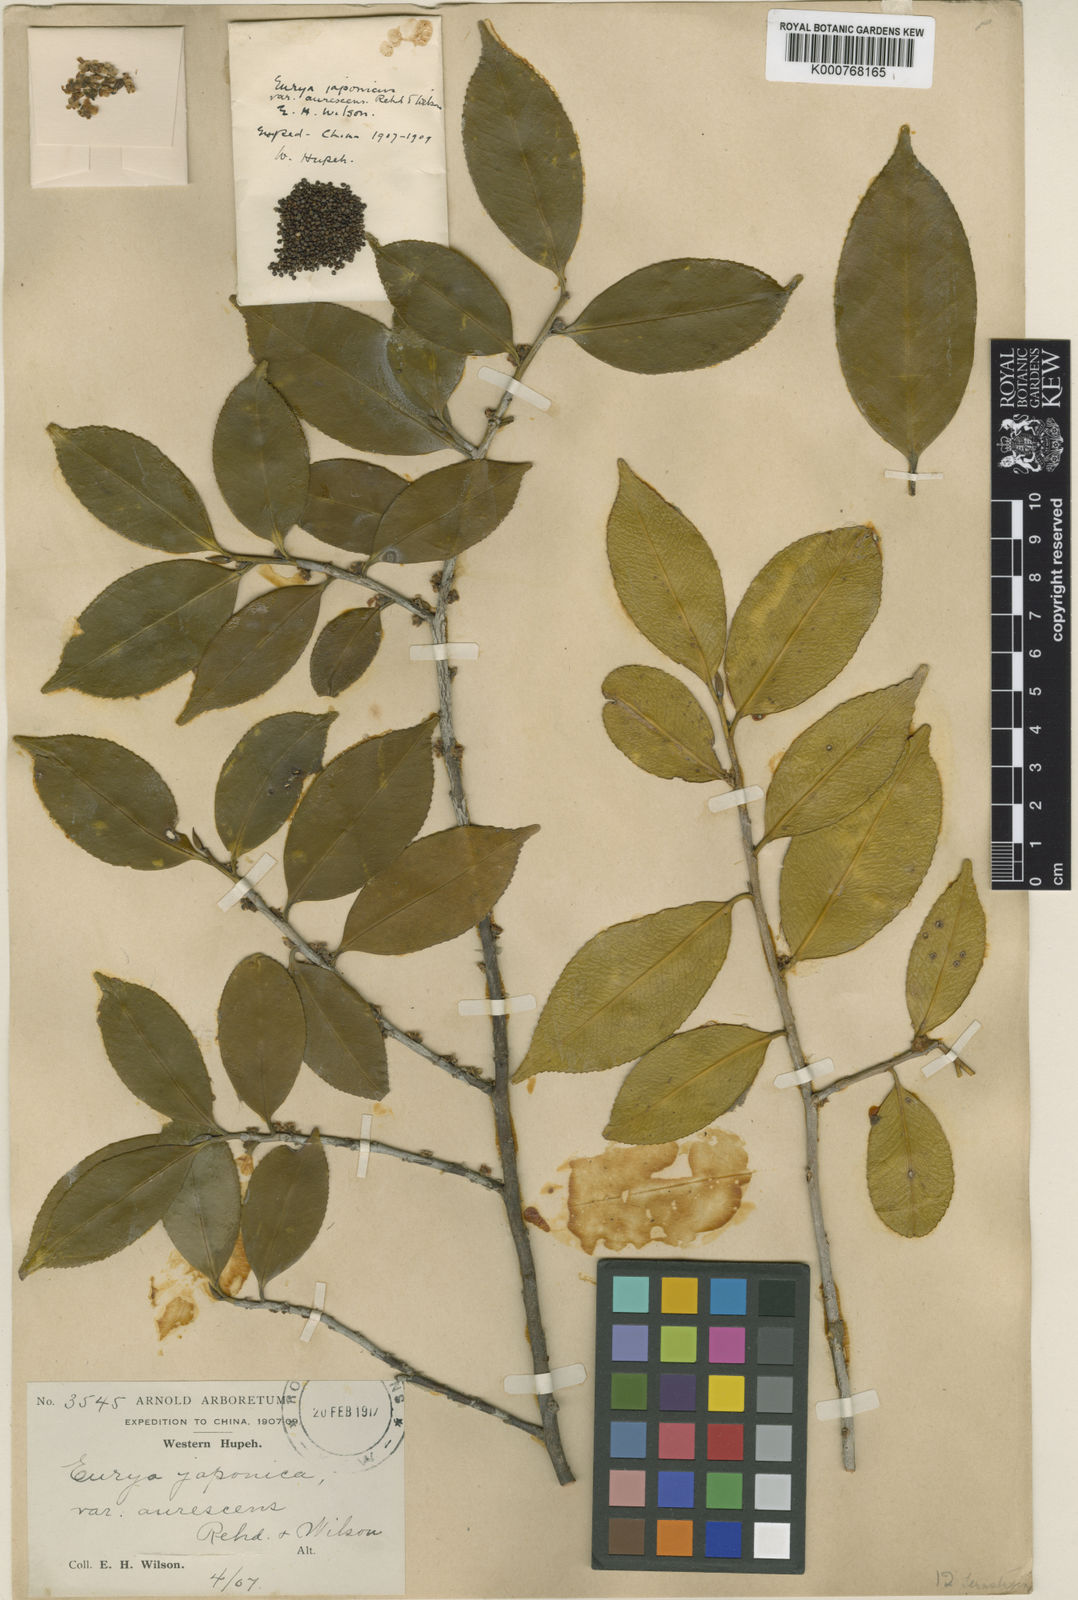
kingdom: Plantae
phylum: Tracheophyta
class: Magnoliopsida
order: Ericales
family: Pentaphylacaceae
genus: Eurya
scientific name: Eurya nitida
